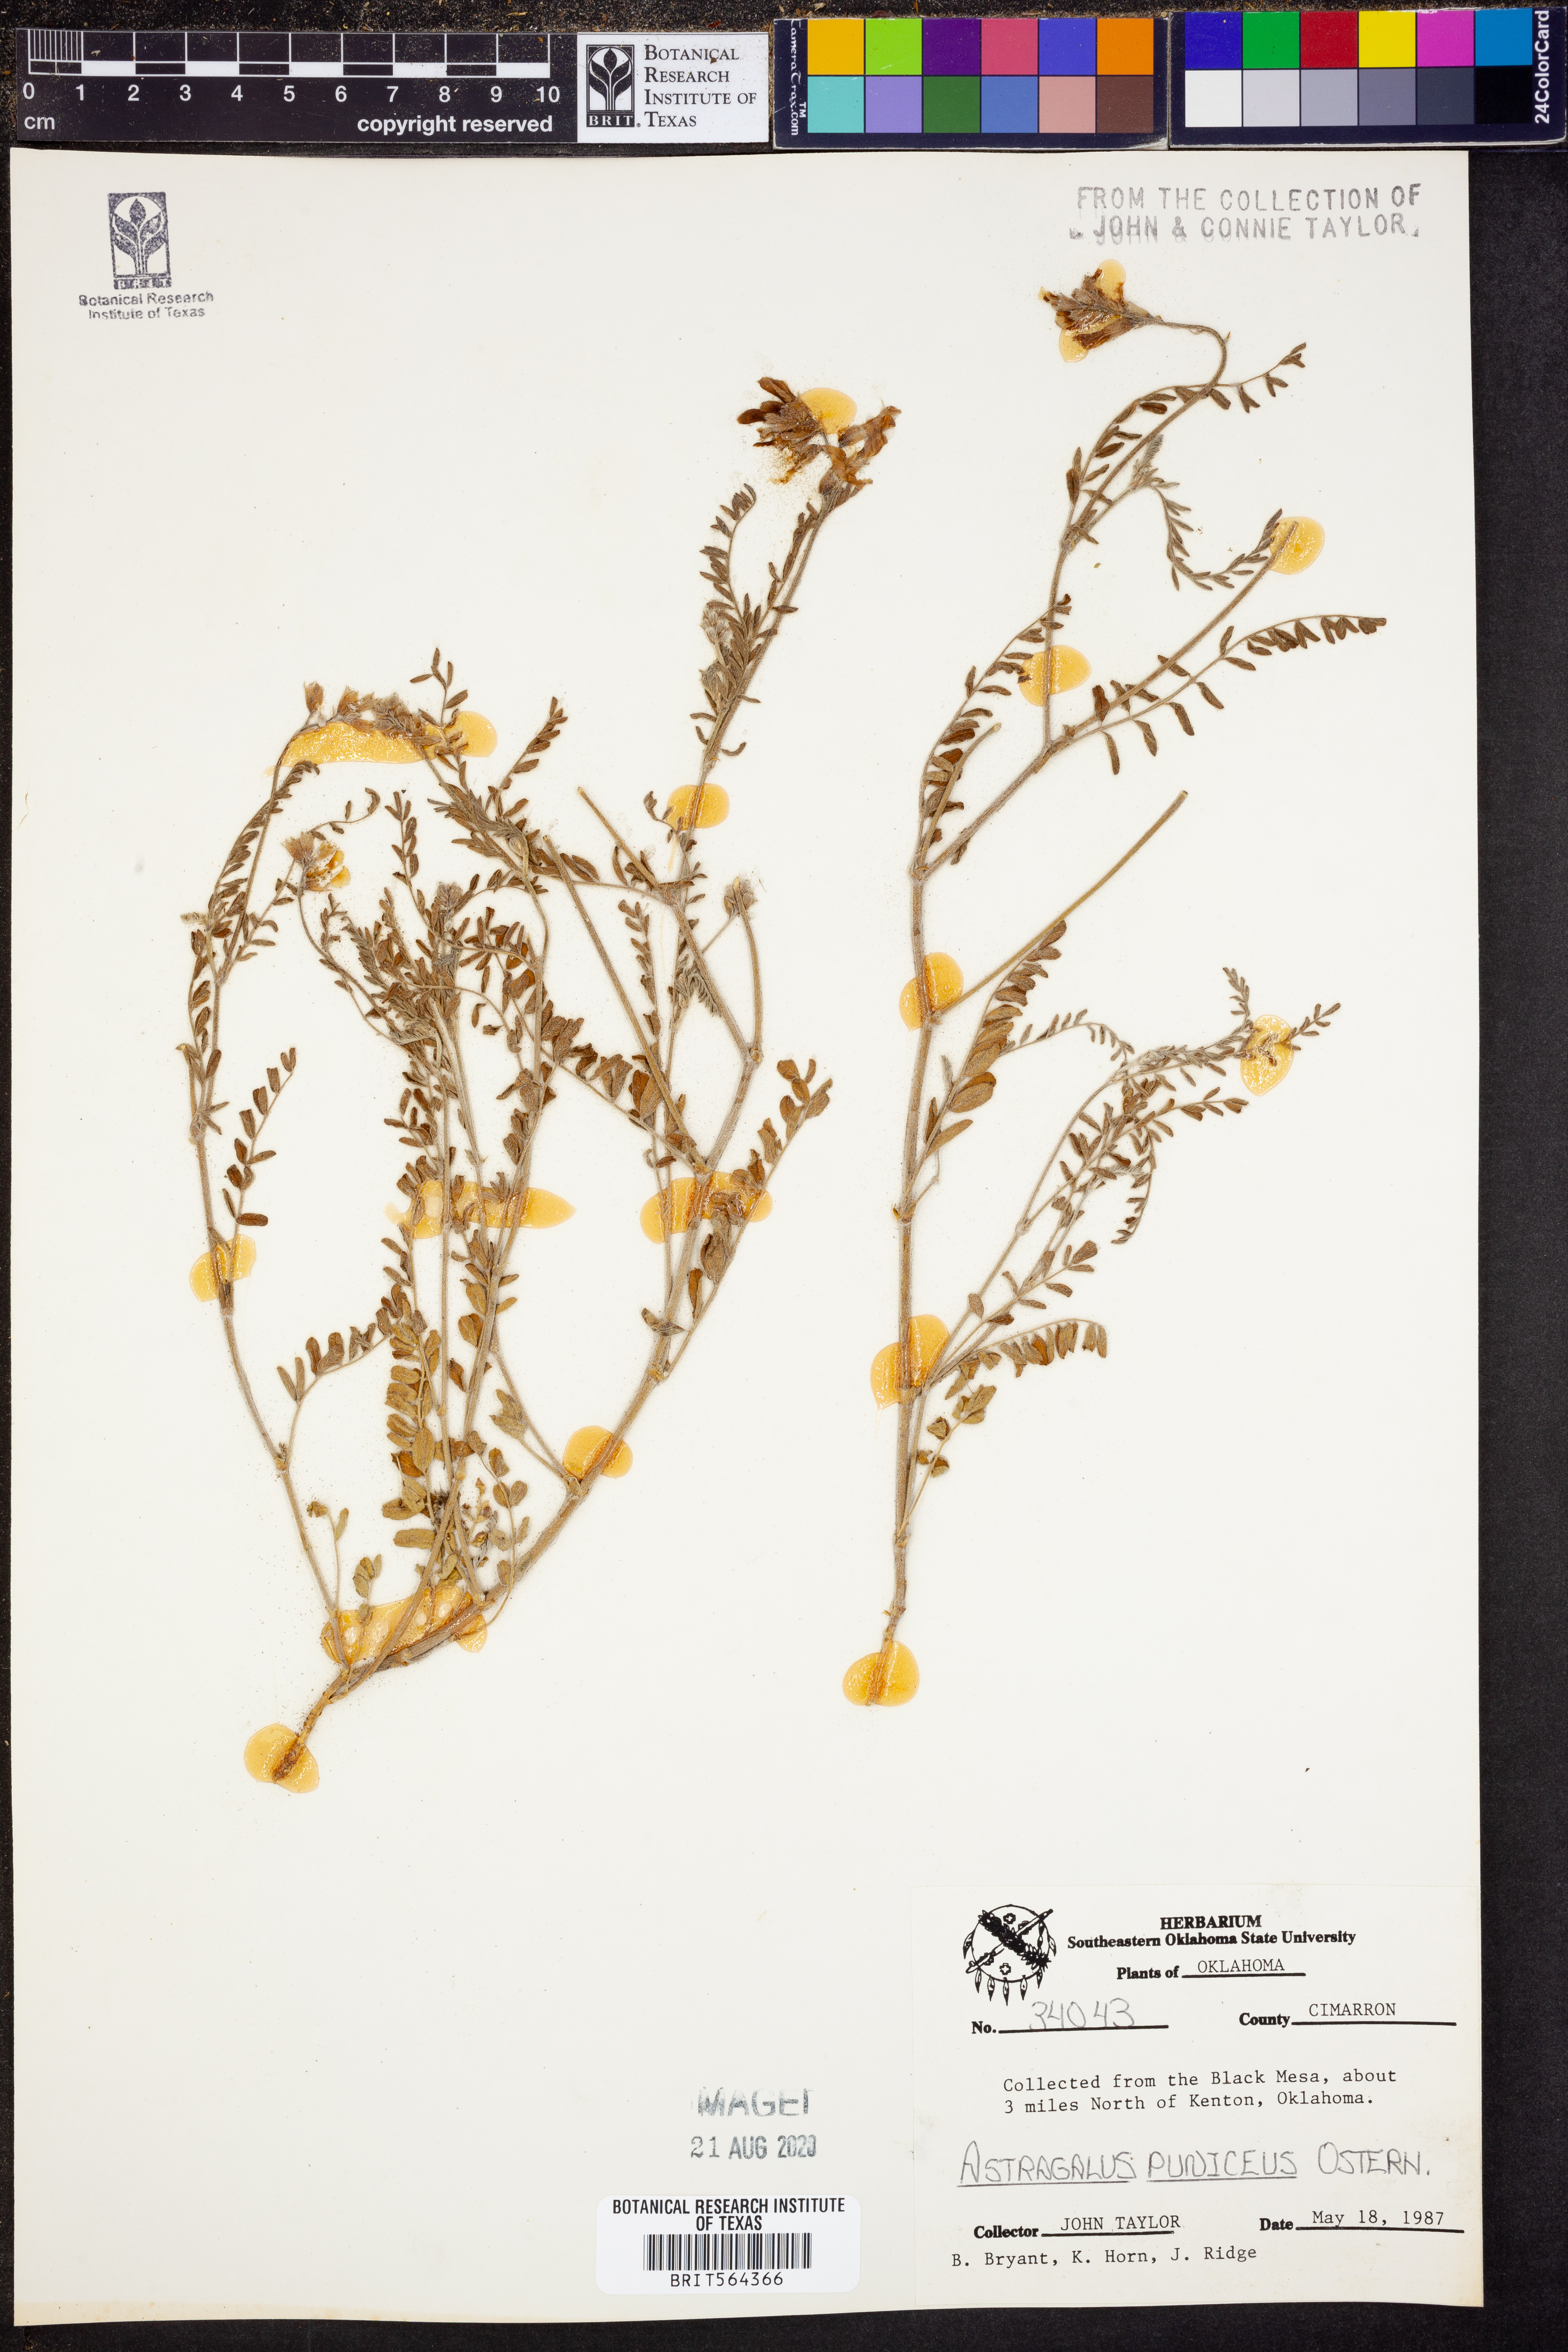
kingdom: Plantae
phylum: Tracheophyta
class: Magnoliopsida
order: Fabales
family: Fabaceae
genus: Astragalus
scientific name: Astragalus puniceus
